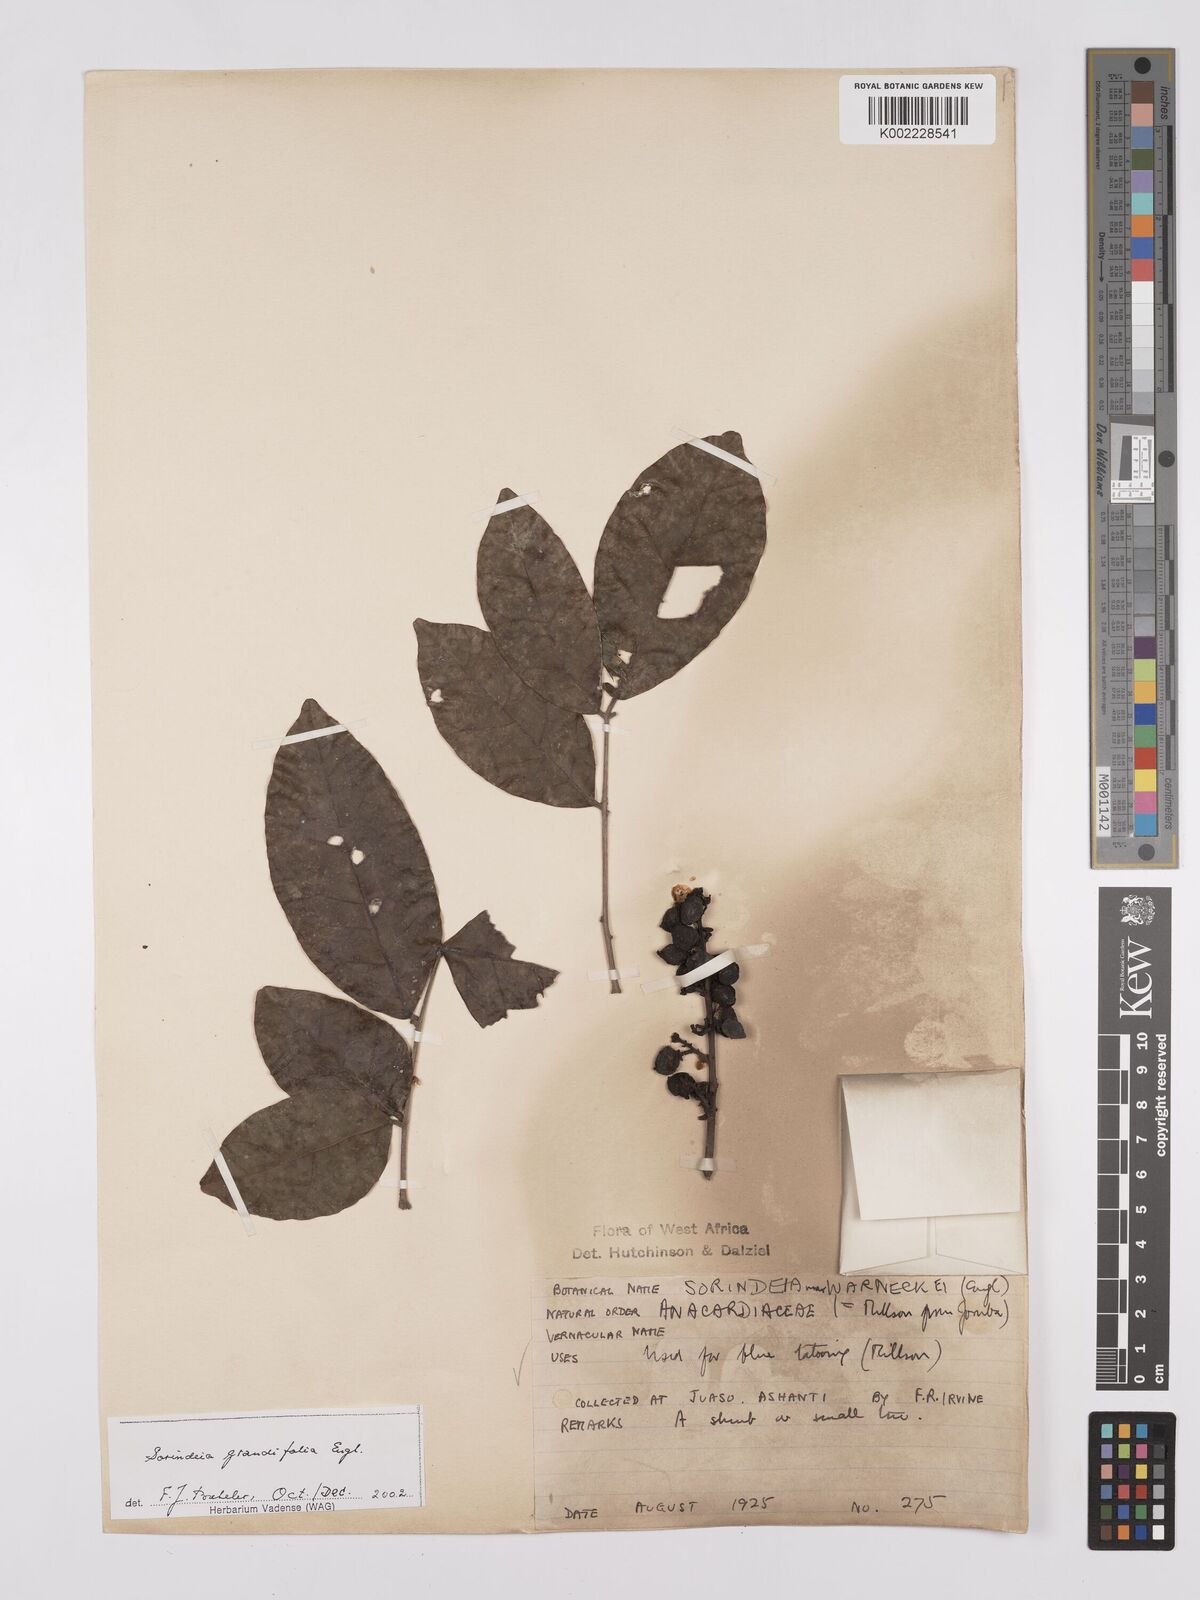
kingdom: Plantae
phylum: Tracheophyta
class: Magnoliopsida
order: Sapindales
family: Anacardiaceae
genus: Sorindeia
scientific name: Sorindeia grandifolia
